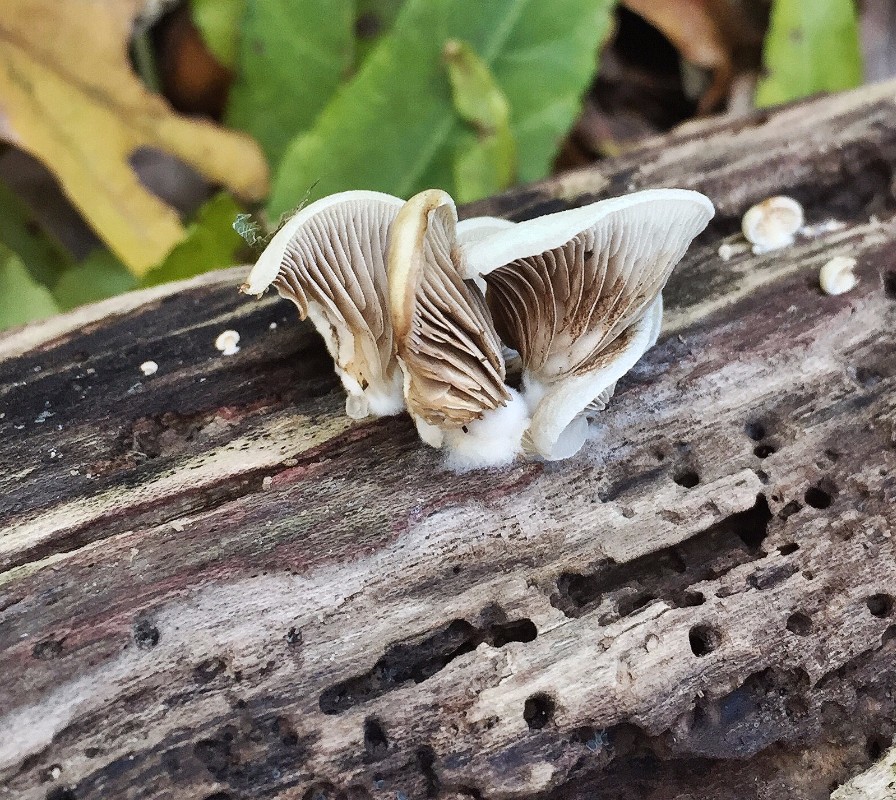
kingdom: Fungi
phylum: Basidiomycota
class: Agaricomycetes
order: Agaricales
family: Crepidotaceae
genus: Crepidotus
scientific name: Crepidotus mollis
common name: blød muslingesvamp
